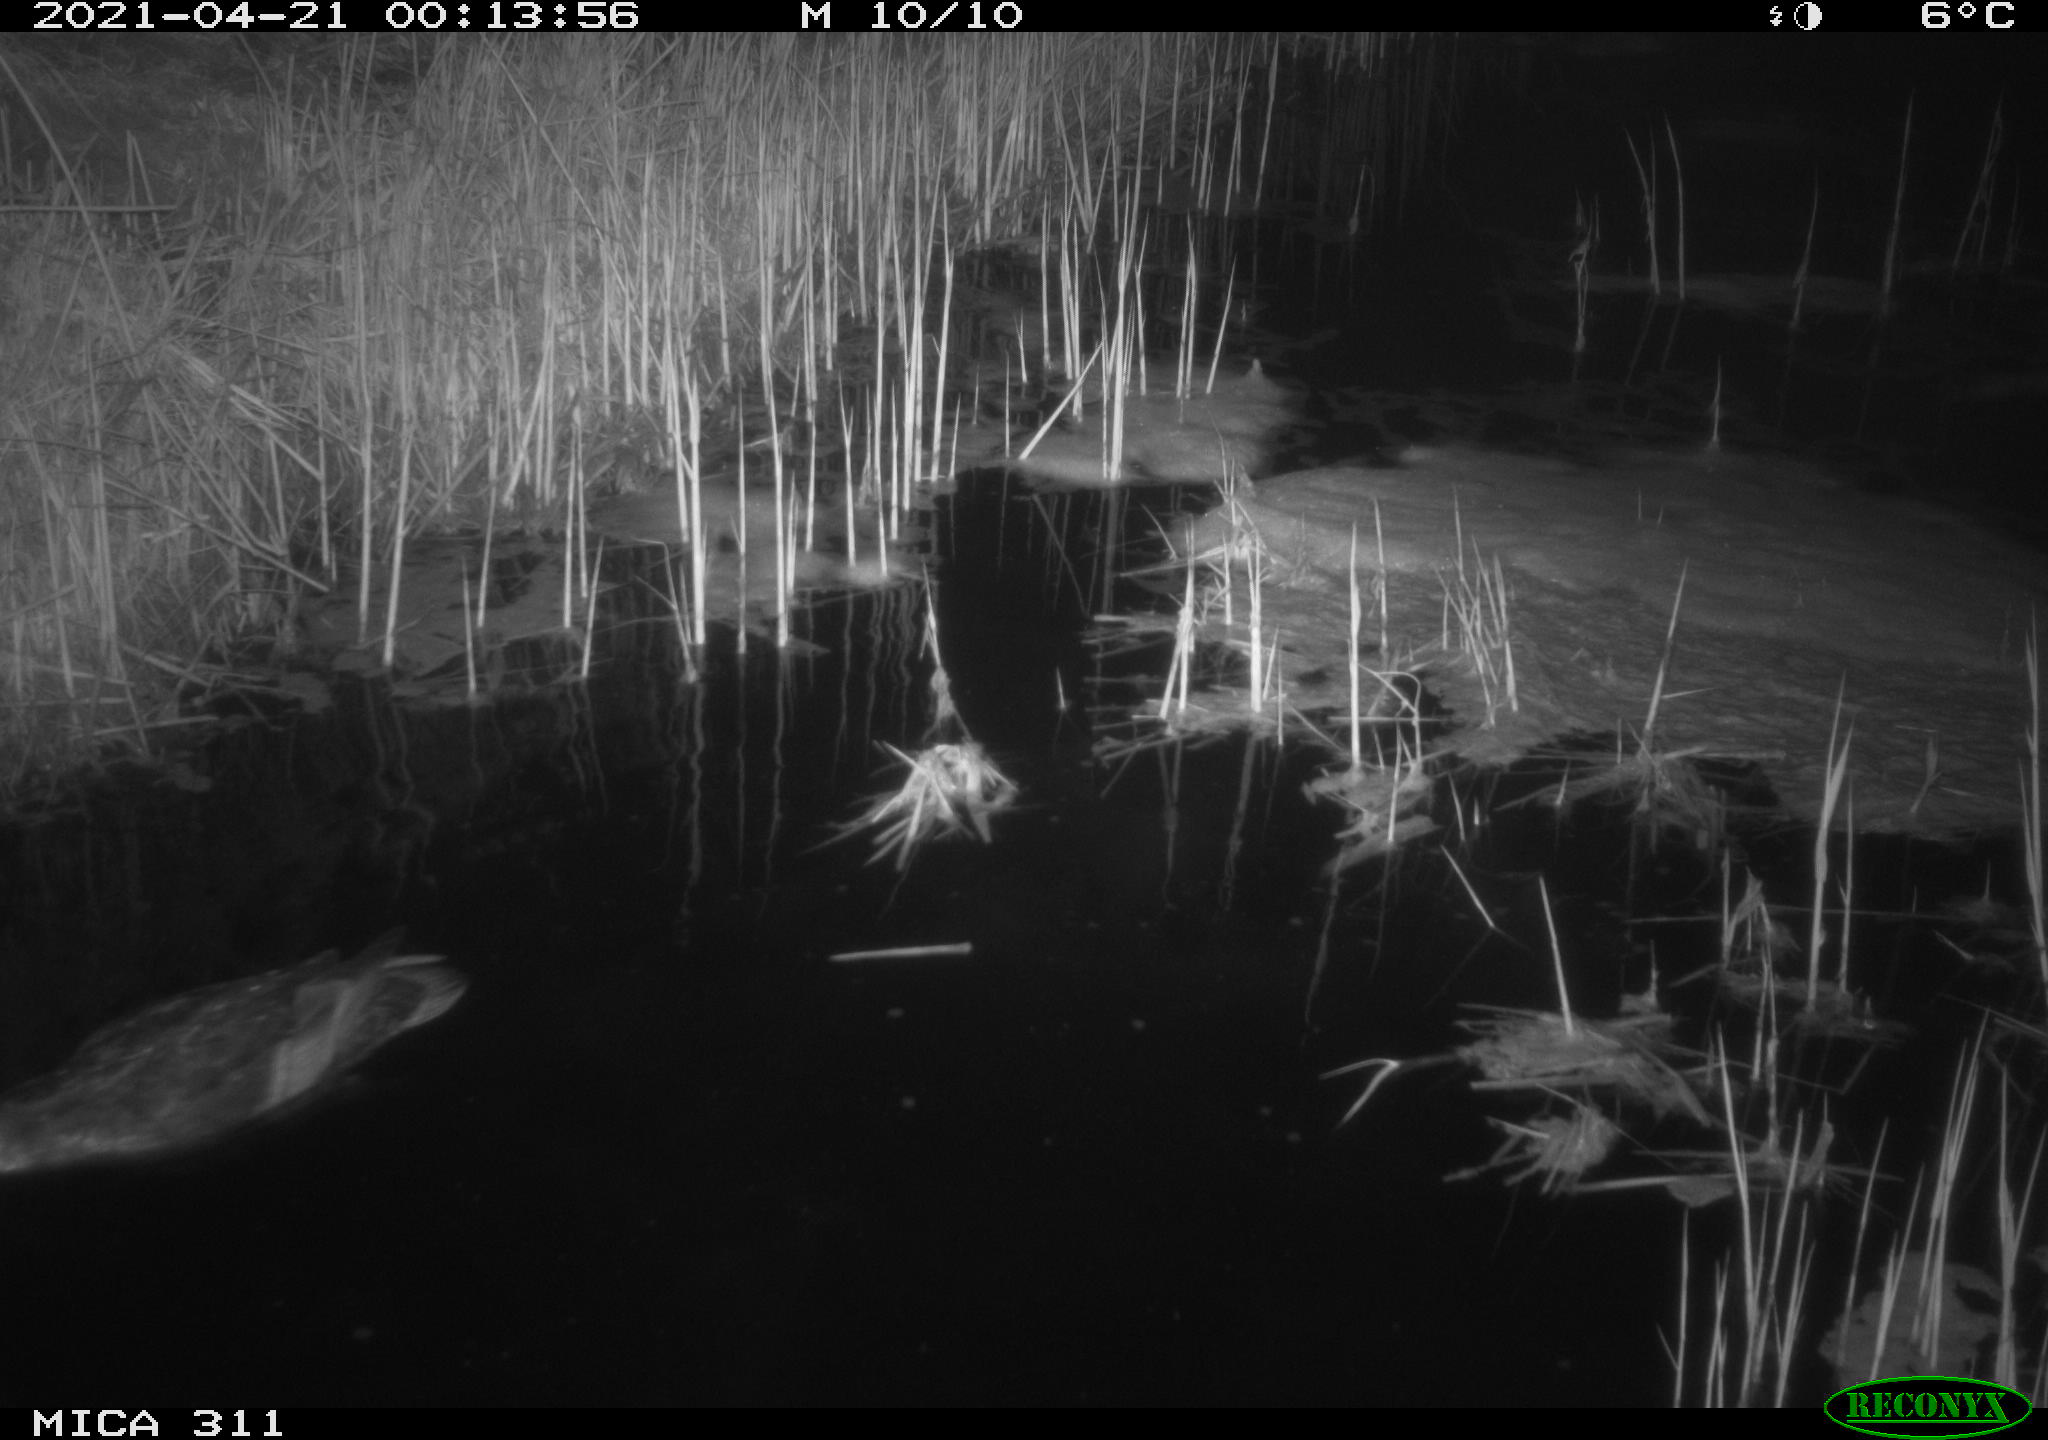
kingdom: Animalia
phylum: Chordata
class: Aves
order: Anseriformes
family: Anatidae
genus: Anas
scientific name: Anas platyrhynchos
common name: Mallard
